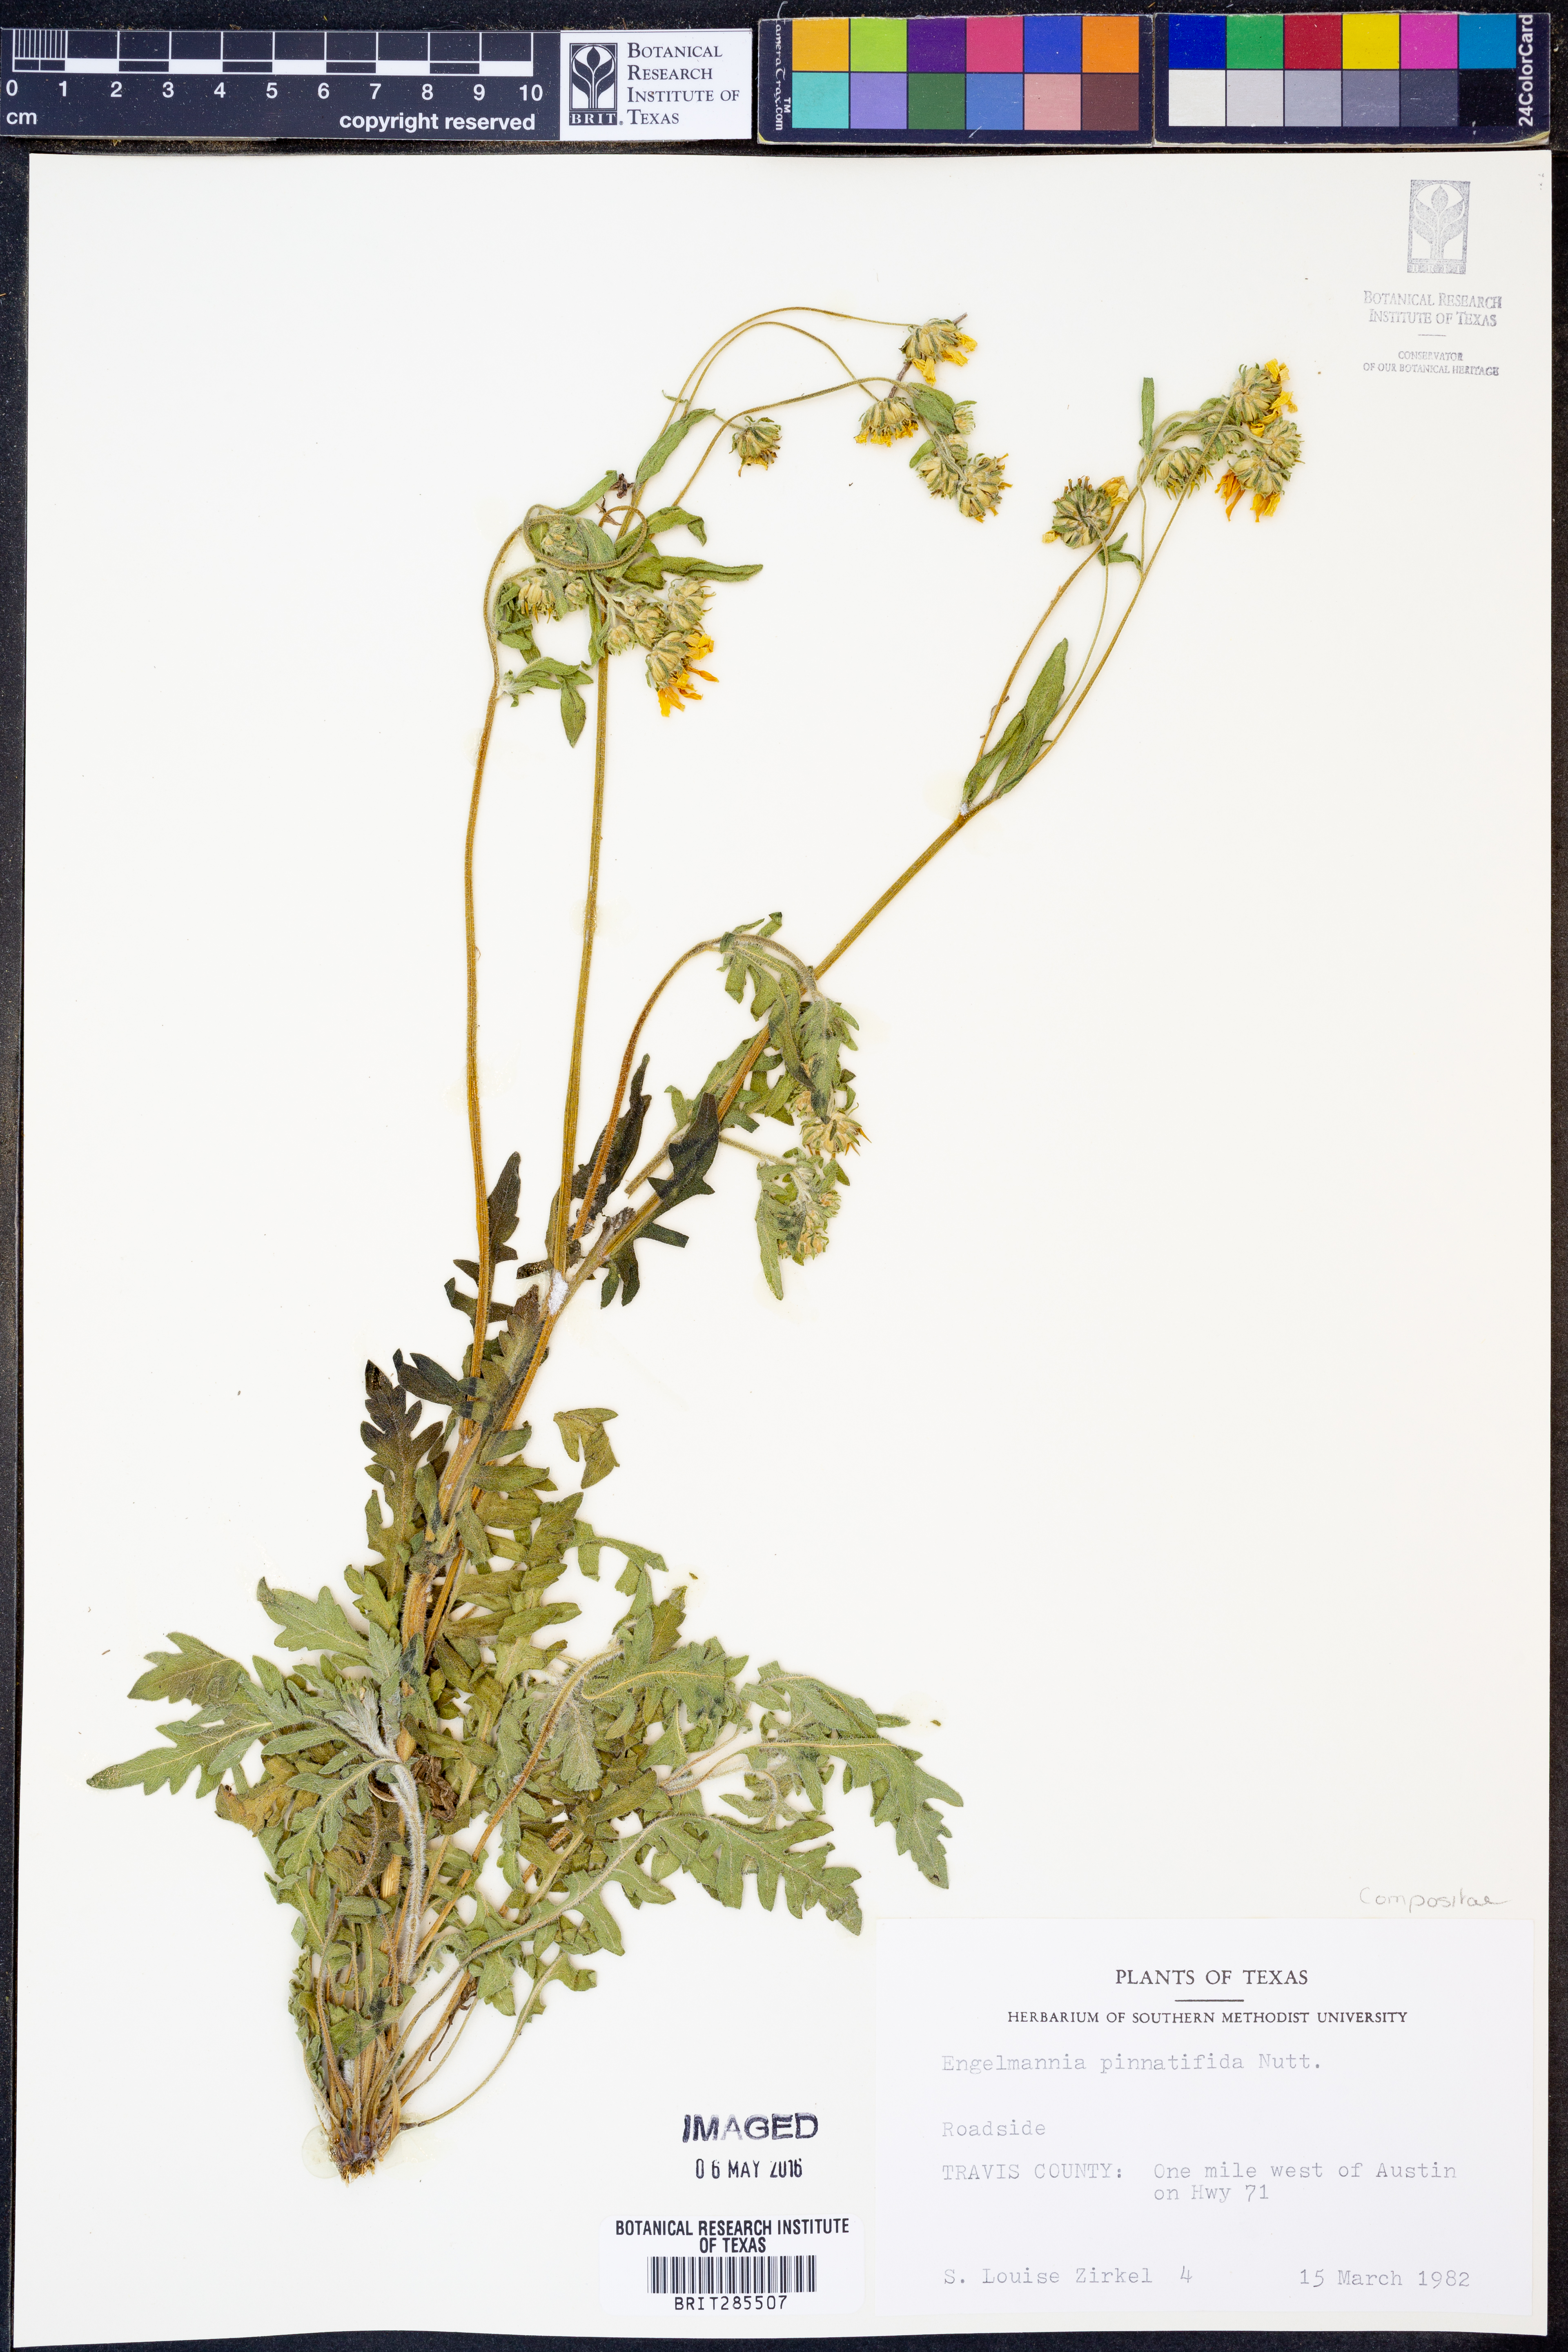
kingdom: Plantae
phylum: Tracheophyta
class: Magnoliopsida
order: Asterales
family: Asteraceae
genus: Engelmannia
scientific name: Engelmannia peristenia
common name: Engelmann's daisy
